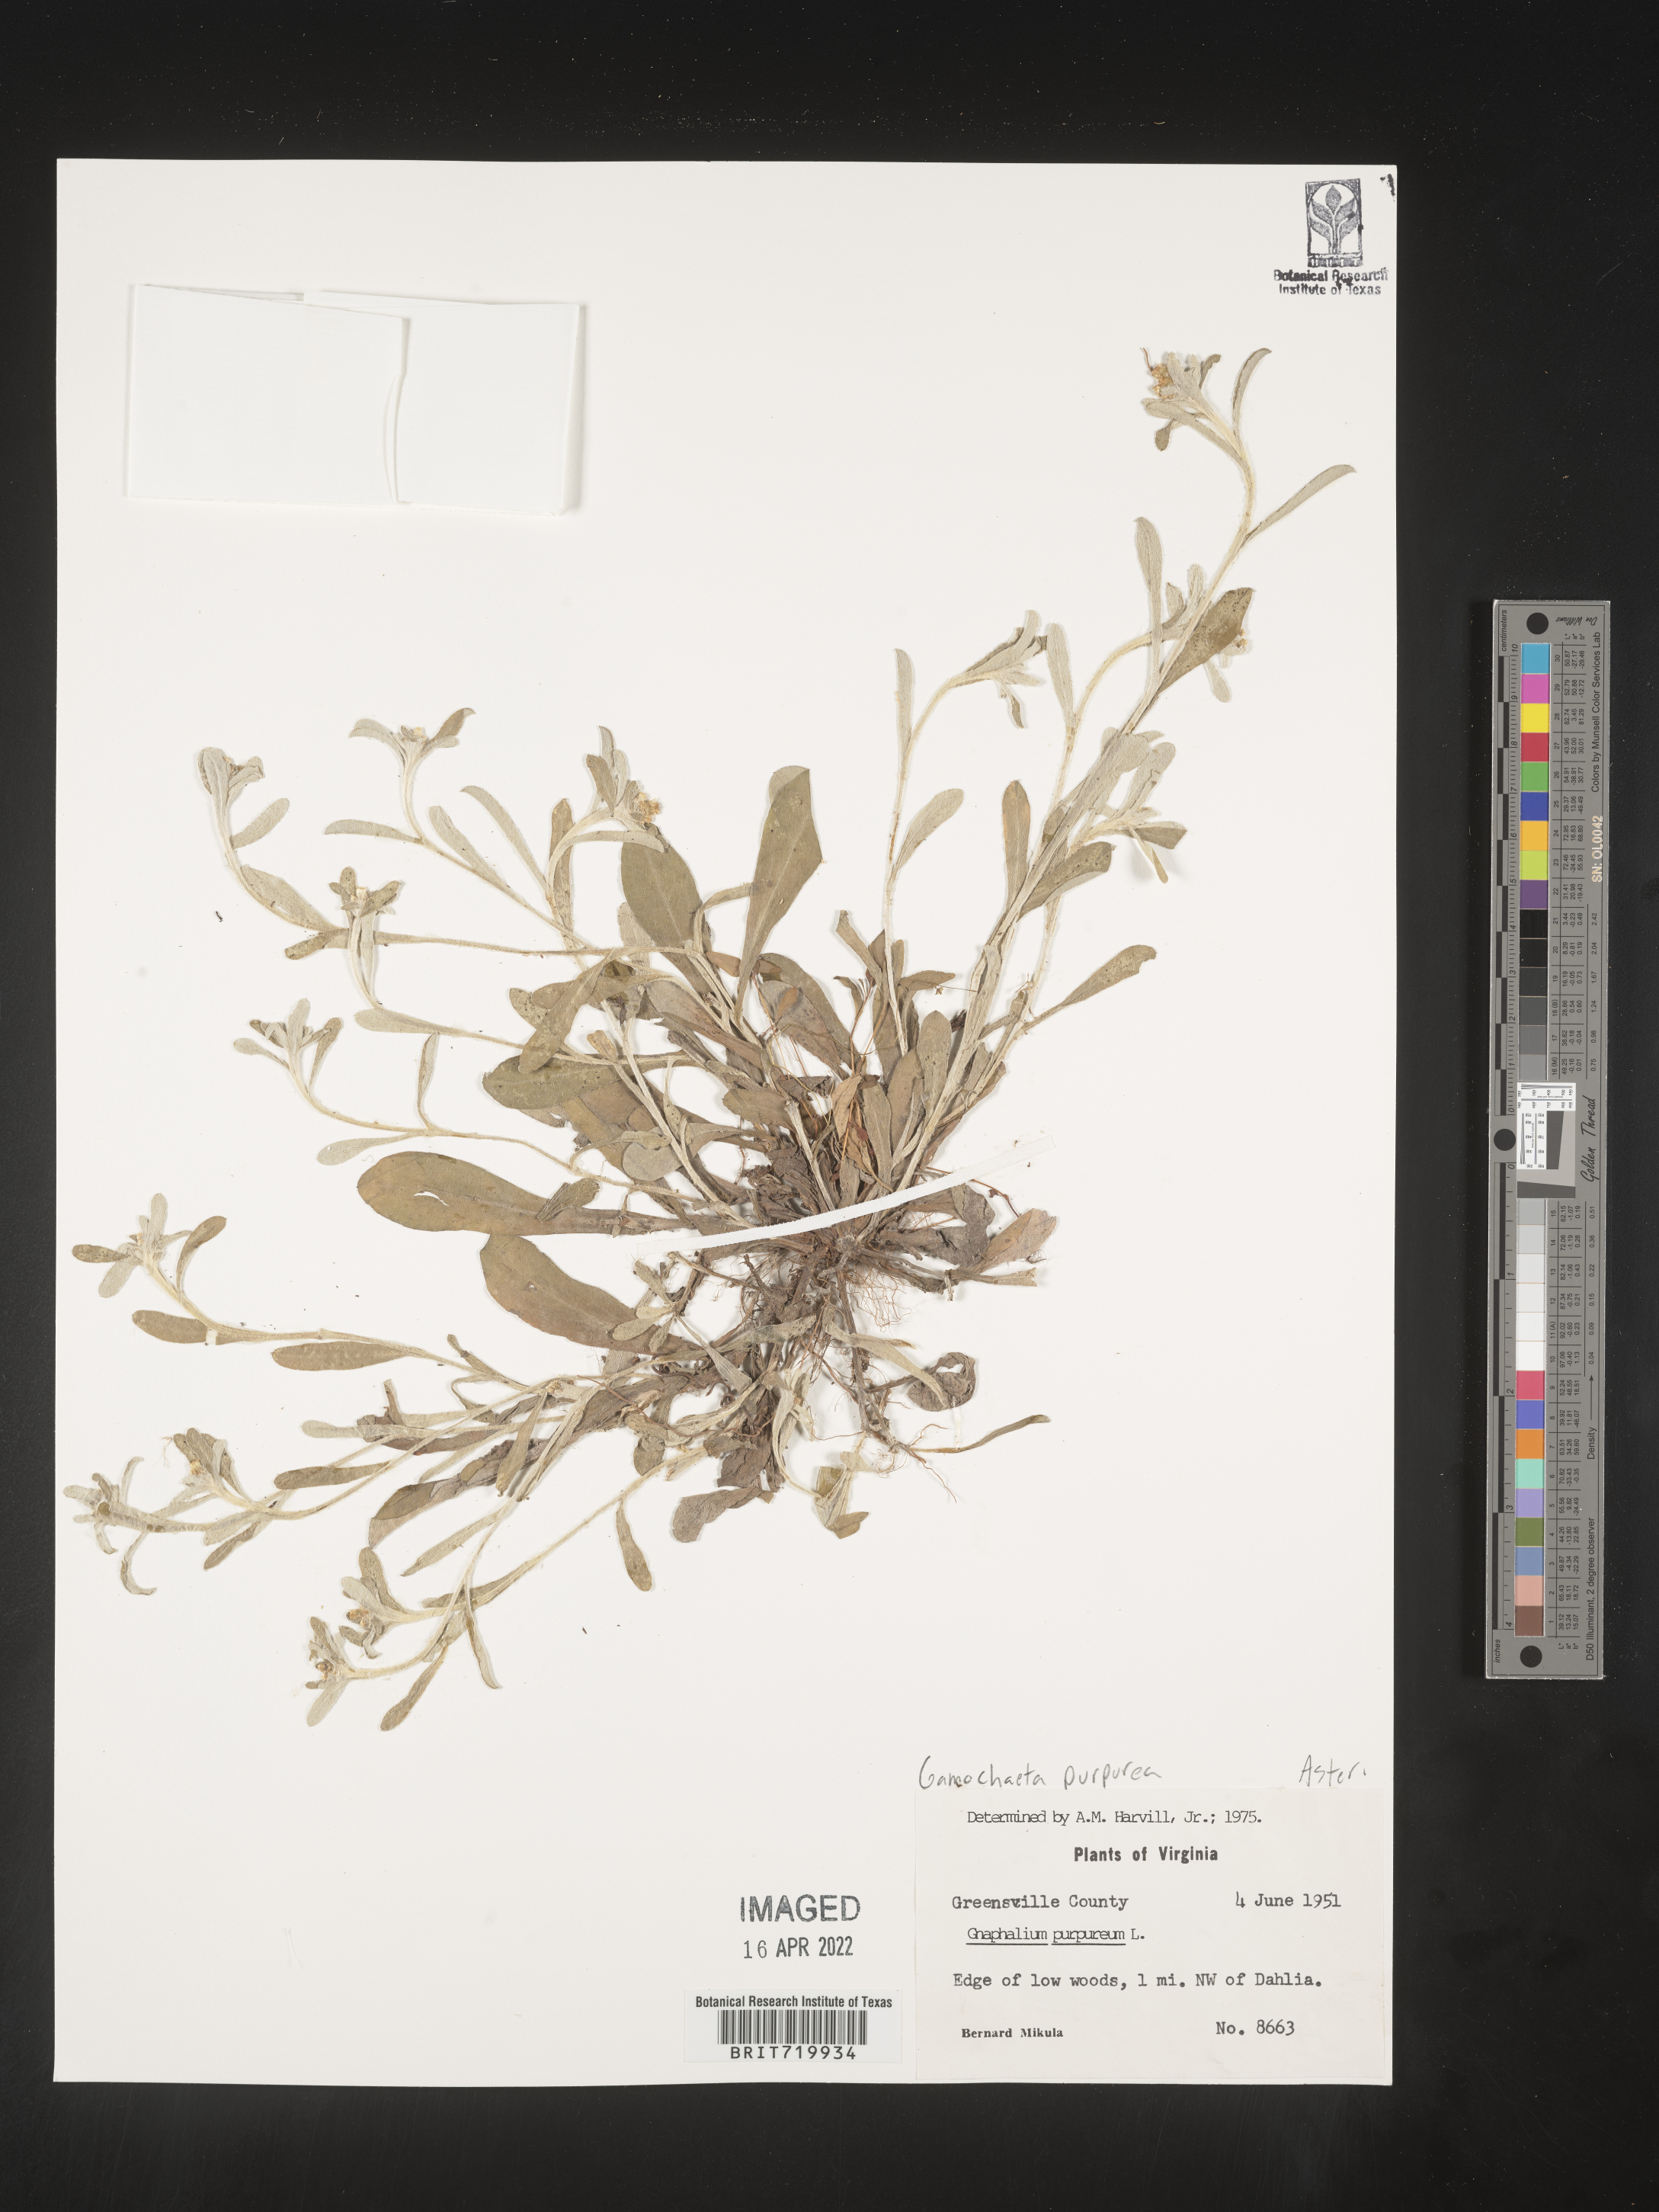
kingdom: Plantae
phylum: Tracheophyta
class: Magnoliopsida
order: Asterales
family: Asteraceae
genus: Gamochaeta
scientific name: Gamochaeta purpurea
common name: Purple cudweed
